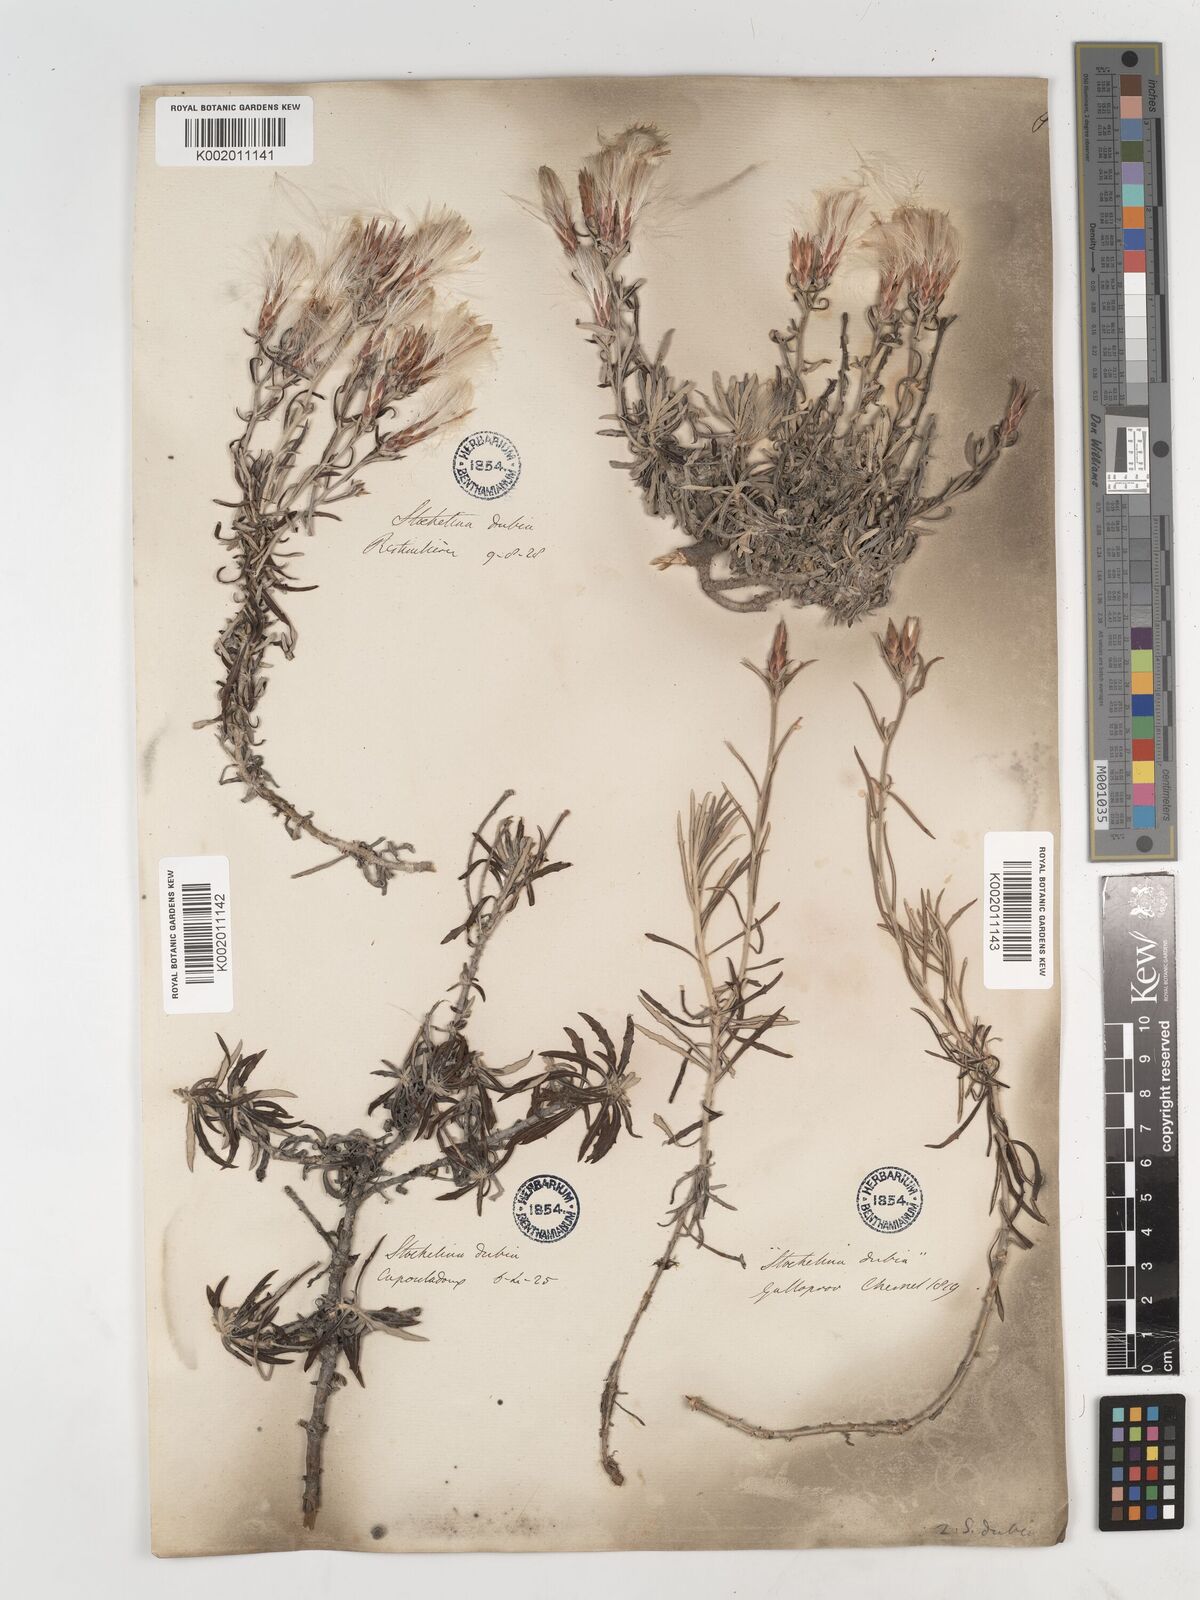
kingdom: Plantae
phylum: Tracheophyta
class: Magnoliopsida
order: Asterales
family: Asteraceae
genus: Staehelina
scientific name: Staehelina dubia
